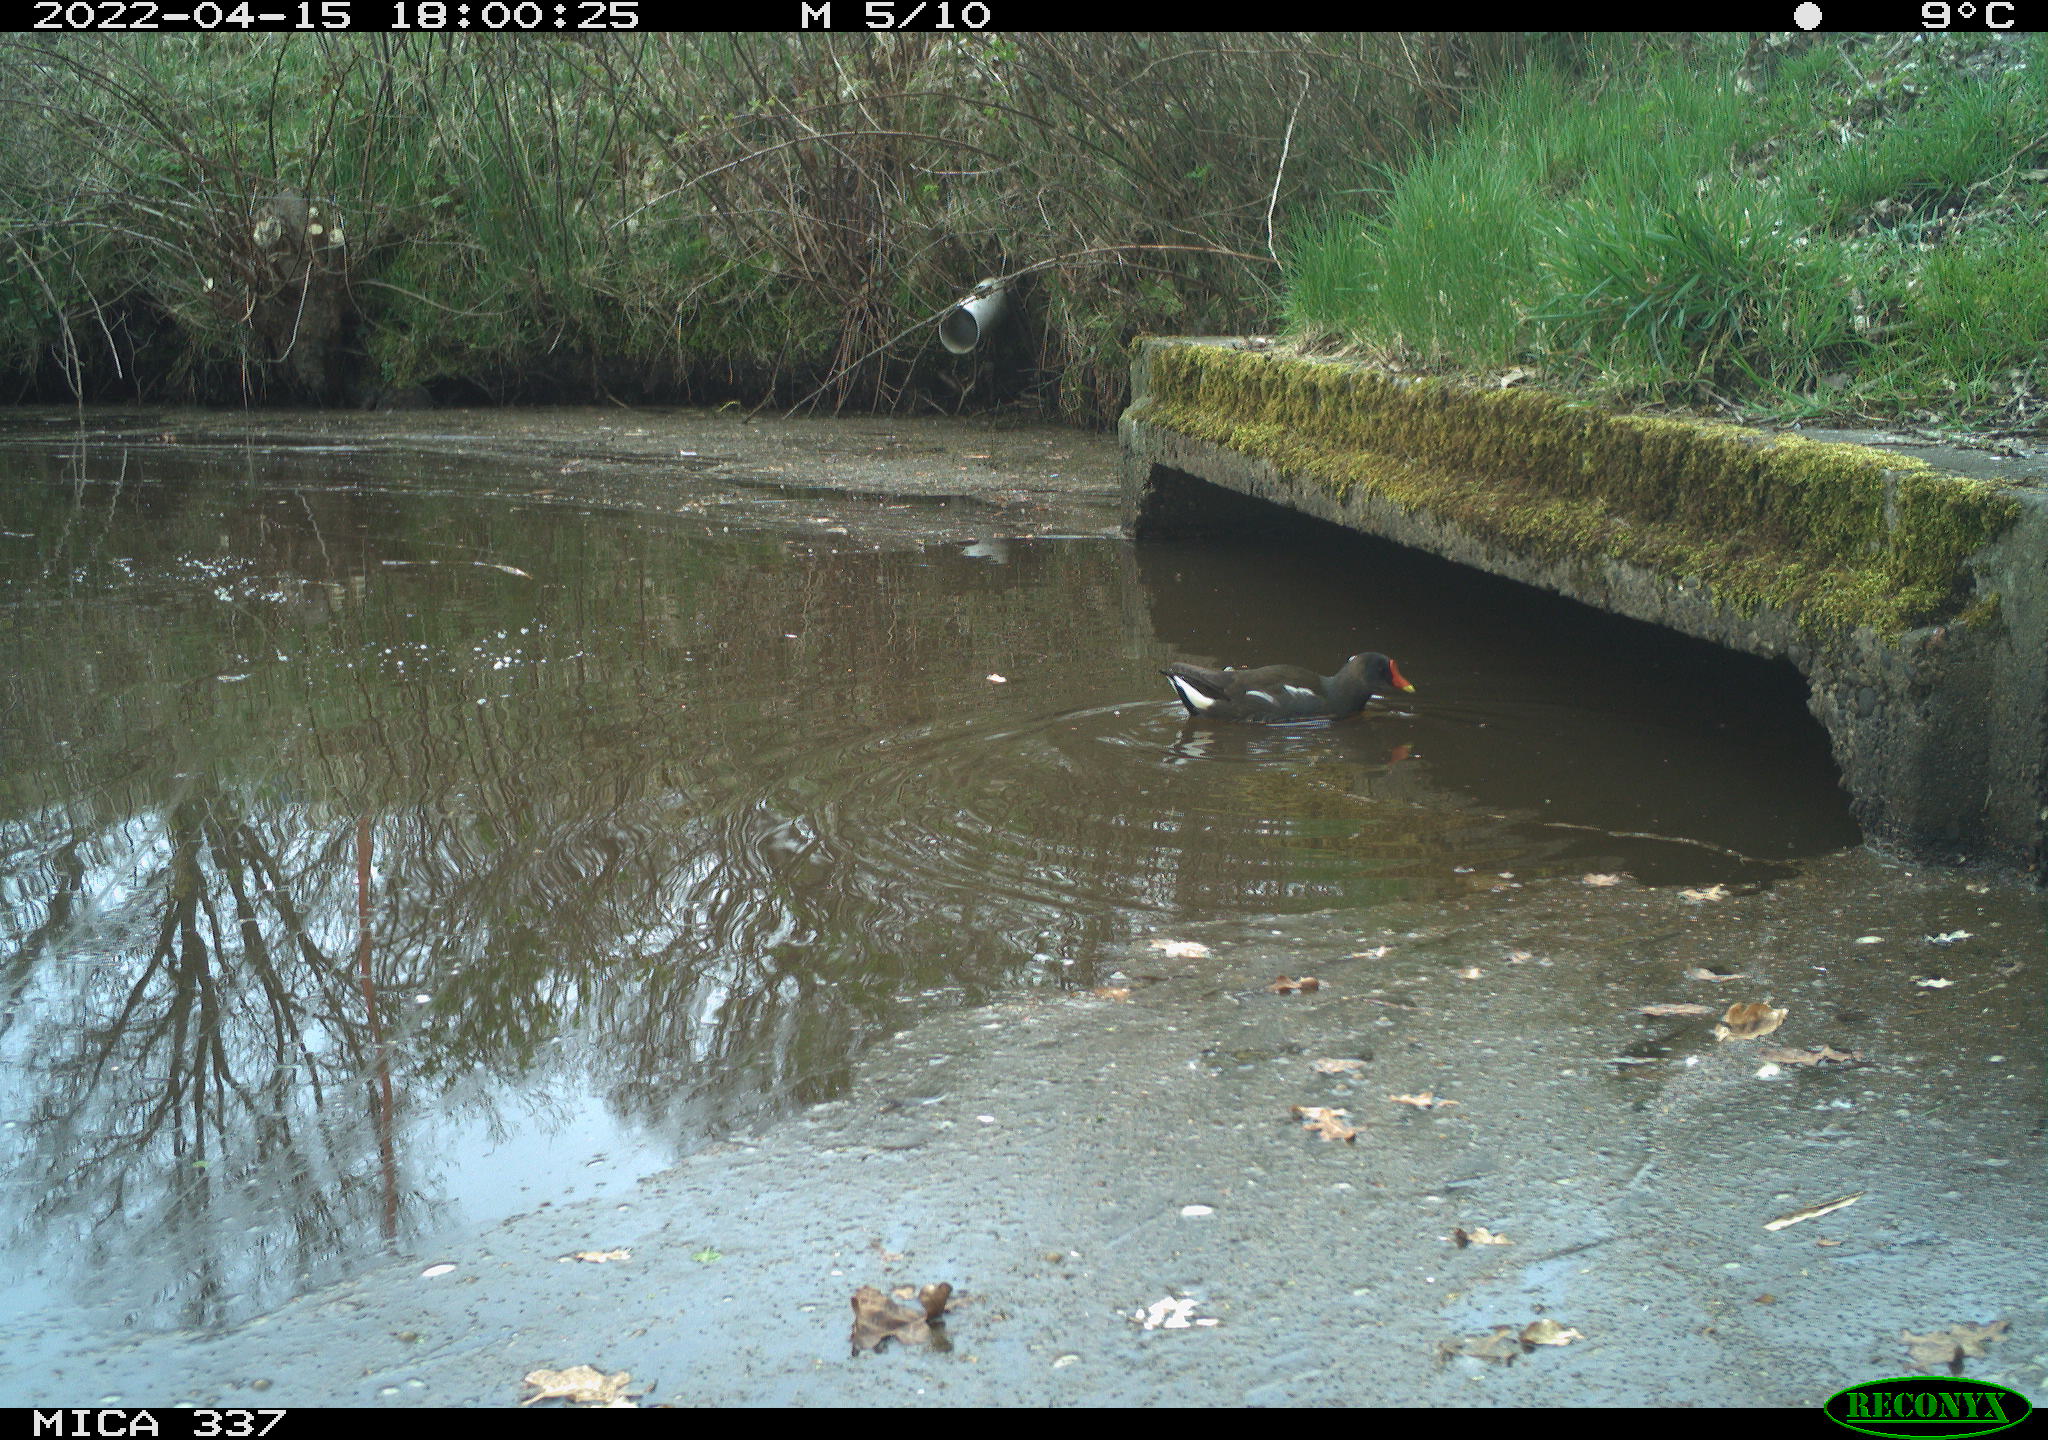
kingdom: Animalia
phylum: Chordata
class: Aves
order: Gruiformes
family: Rallidae
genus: Gallinula
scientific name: Gallinula chloropus
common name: Common moorhen
